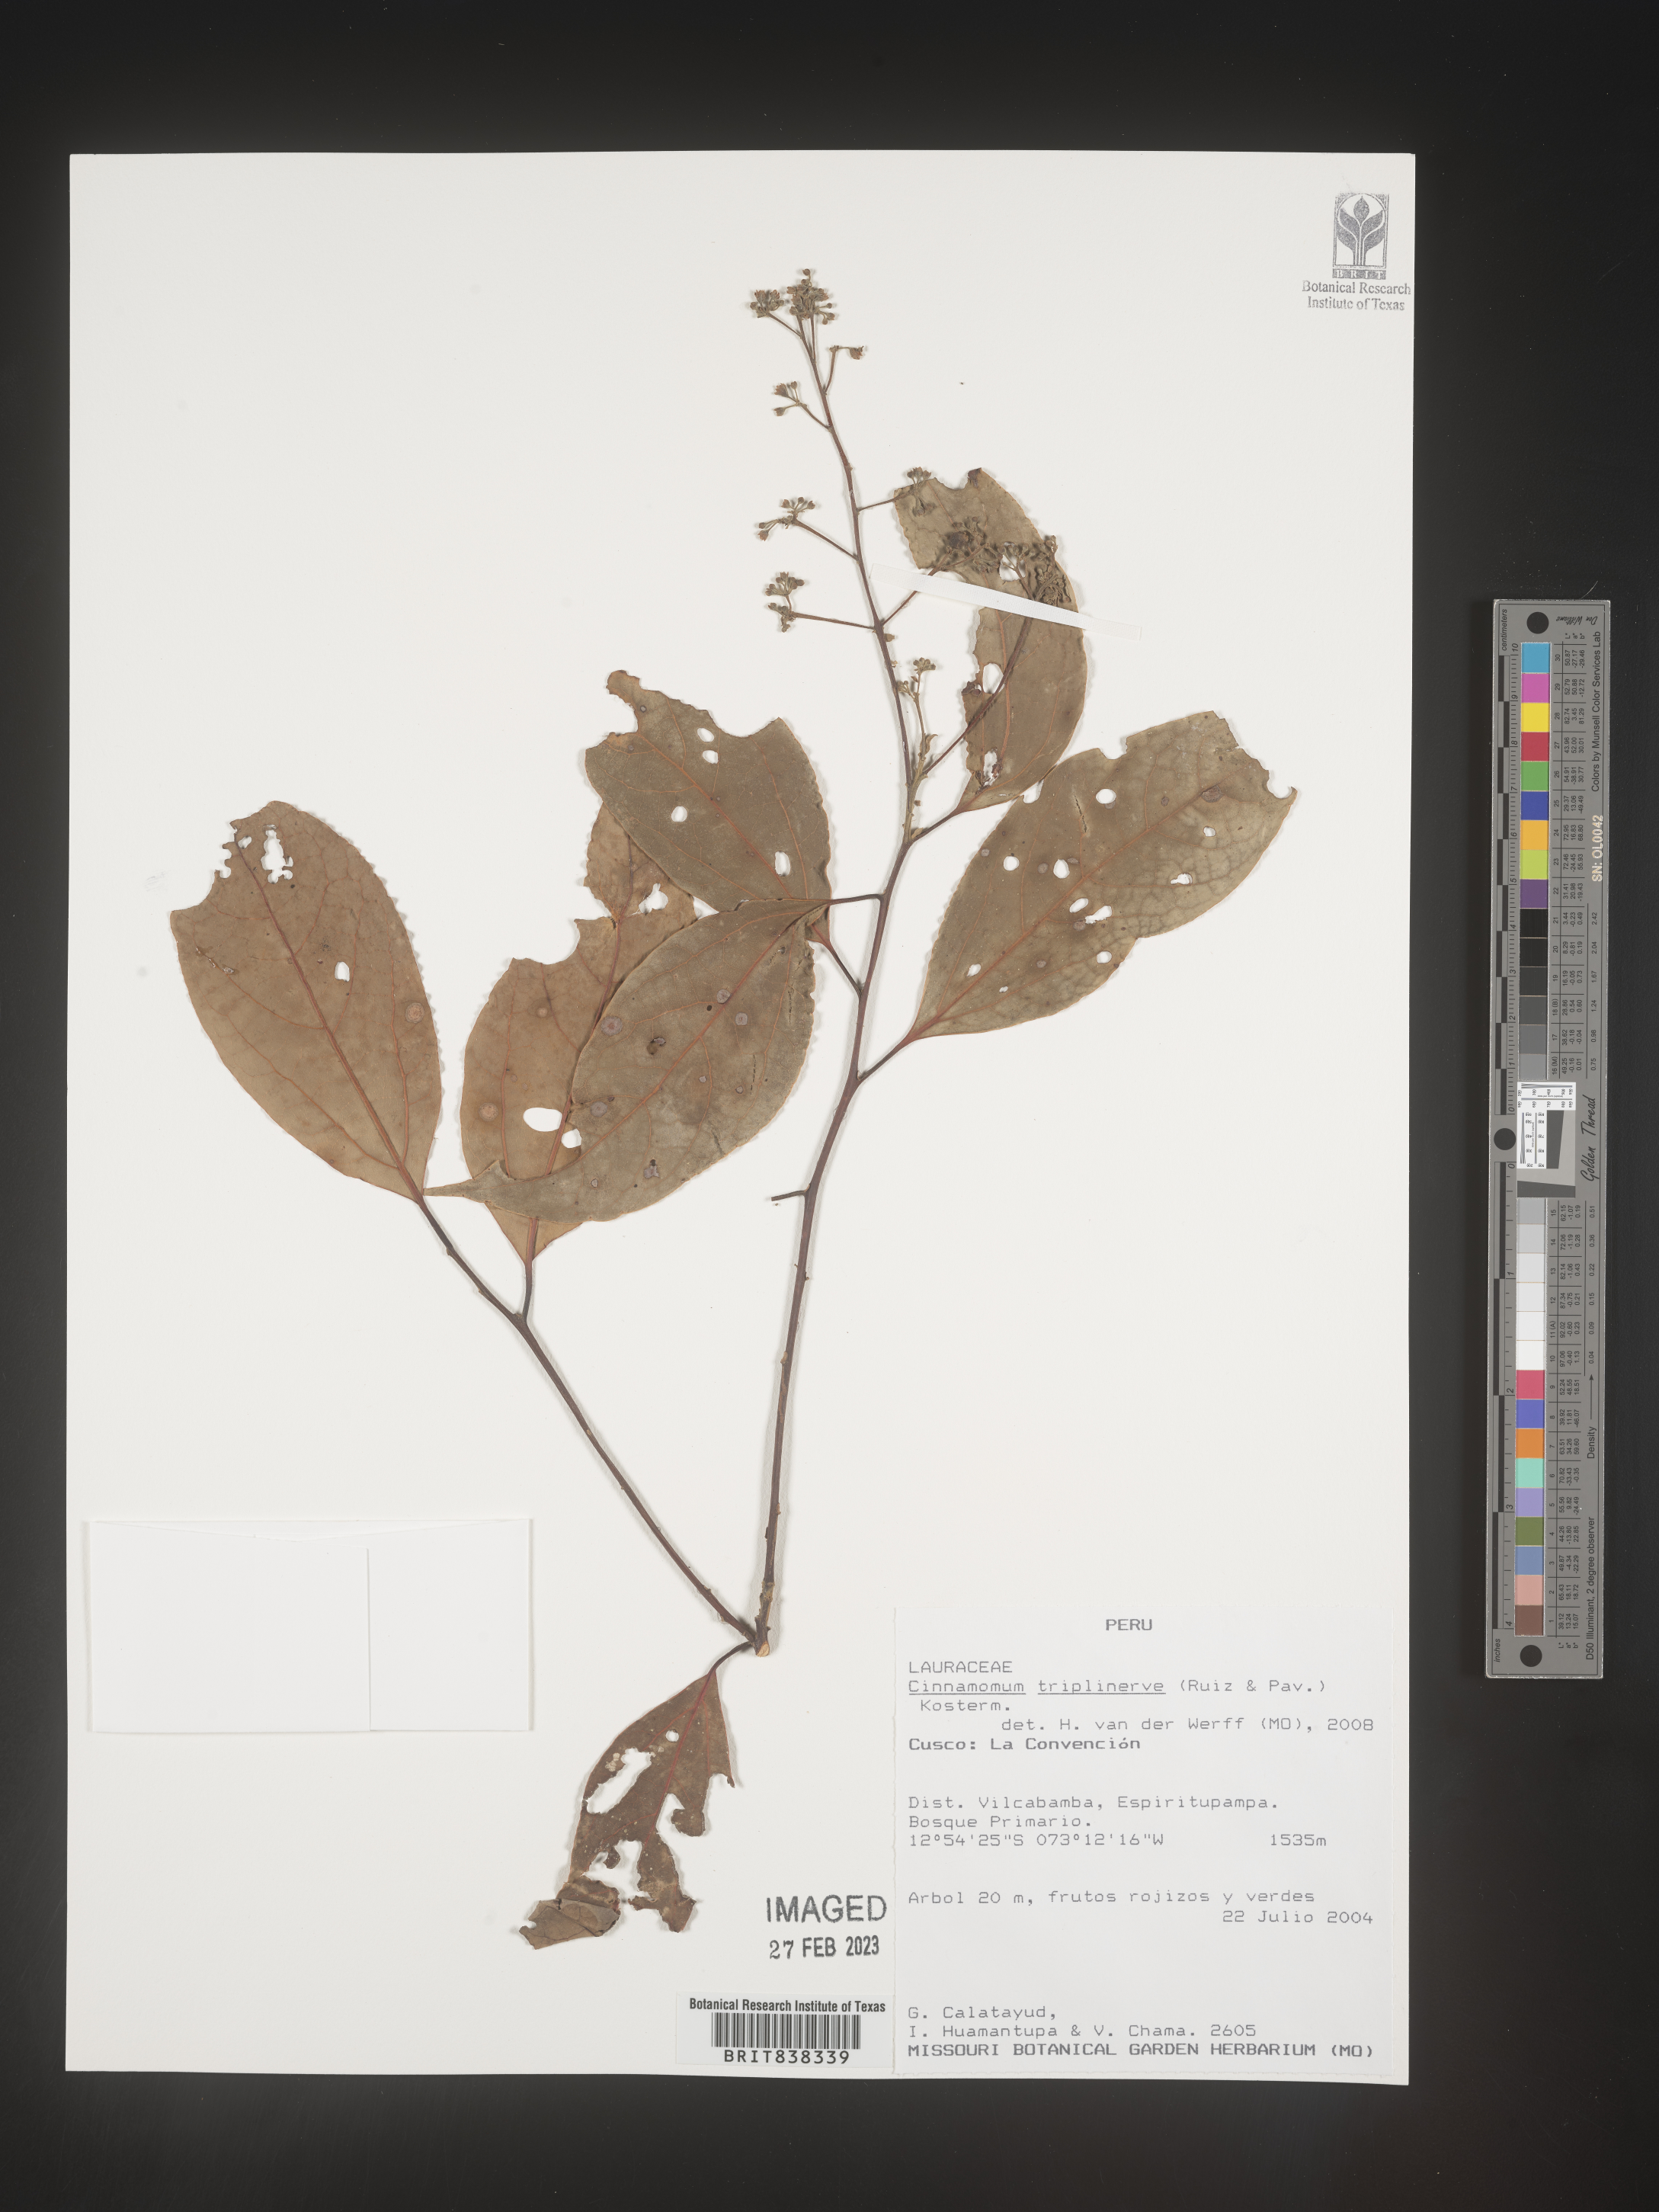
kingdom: Plantae
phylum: Tracheophyta
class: Magnoliopsida
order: Laurales
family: Lauraceae
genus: Aiouea
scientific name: Aiouea montana
